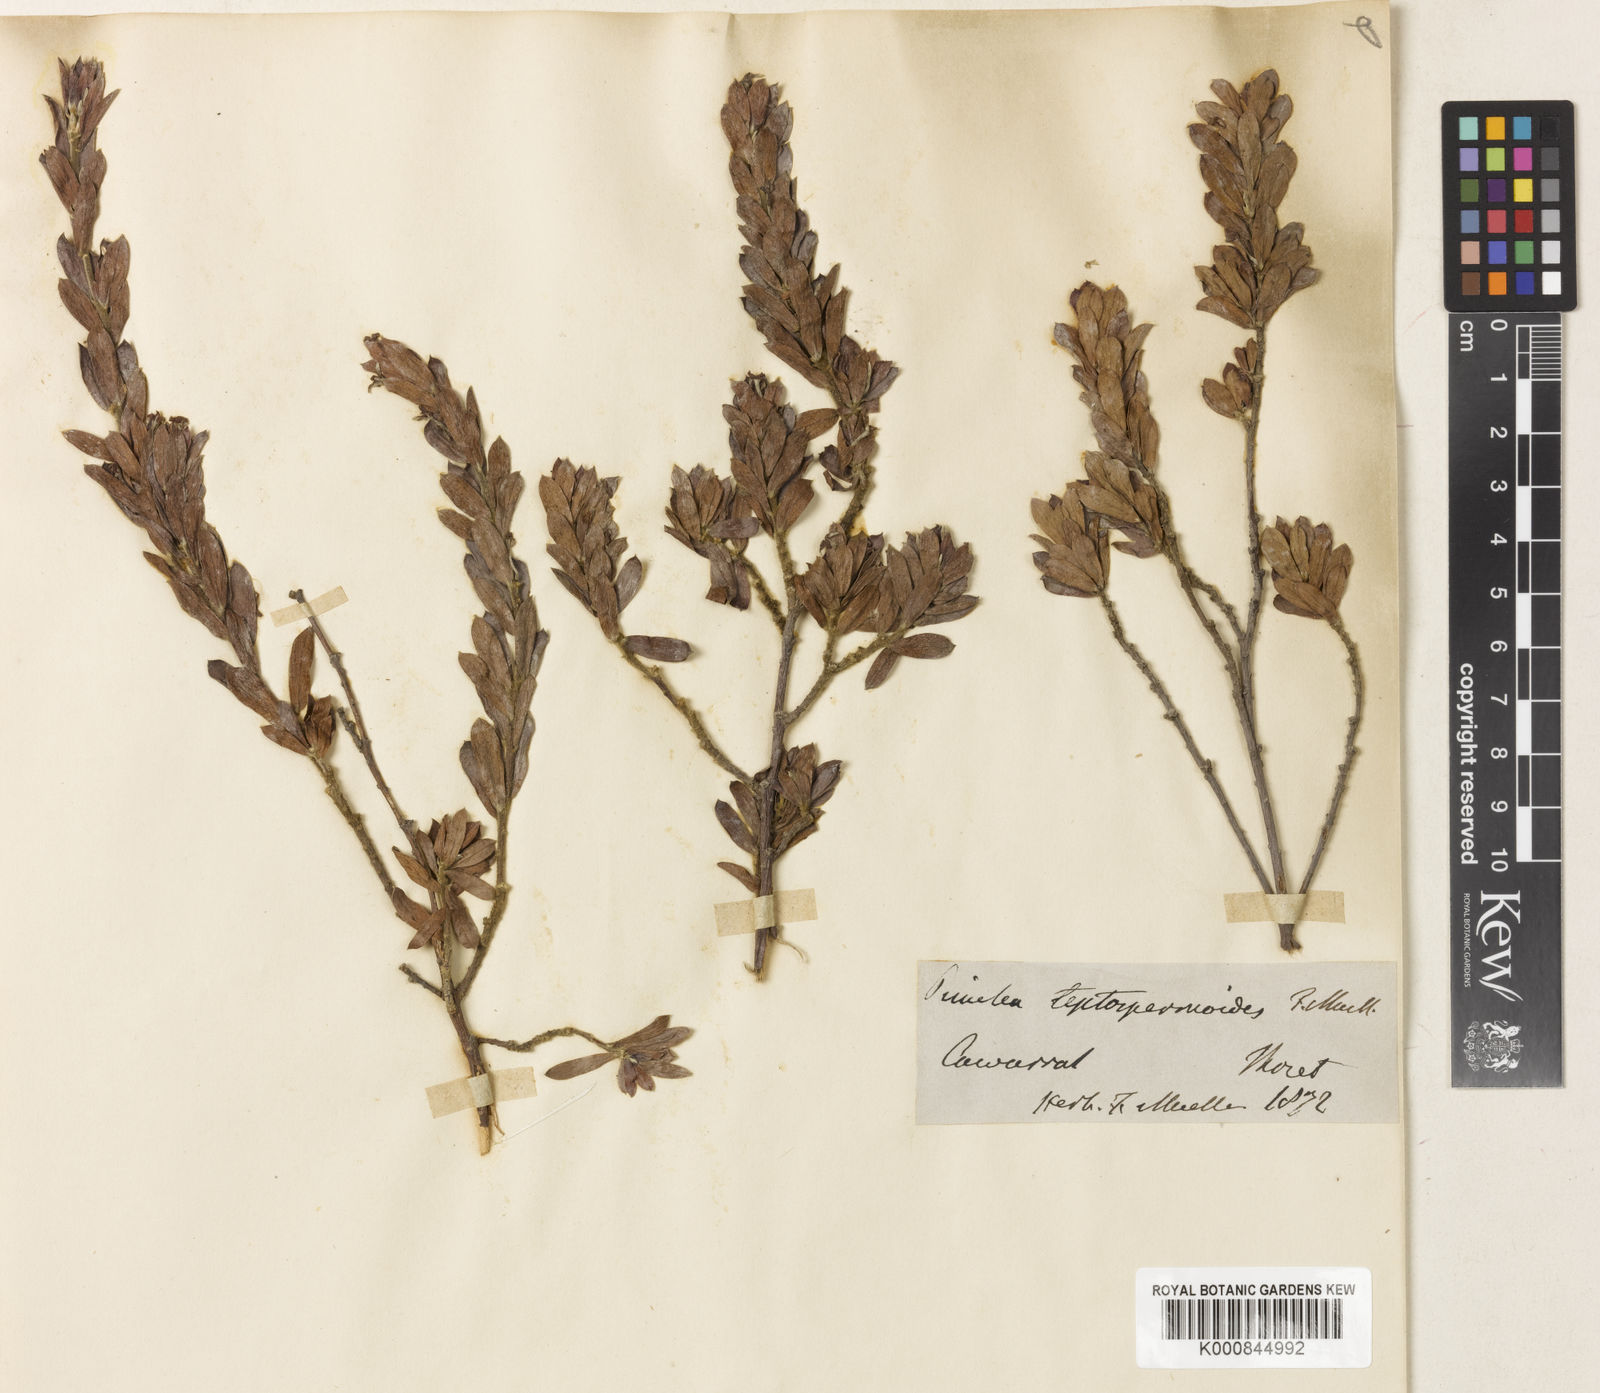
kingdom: Plantae
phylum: Tracheophyta
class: Magnoliopsida
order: Malvales
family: Thymelaeaceae
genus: Pimelea
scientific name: Pimelea leptospermoides
